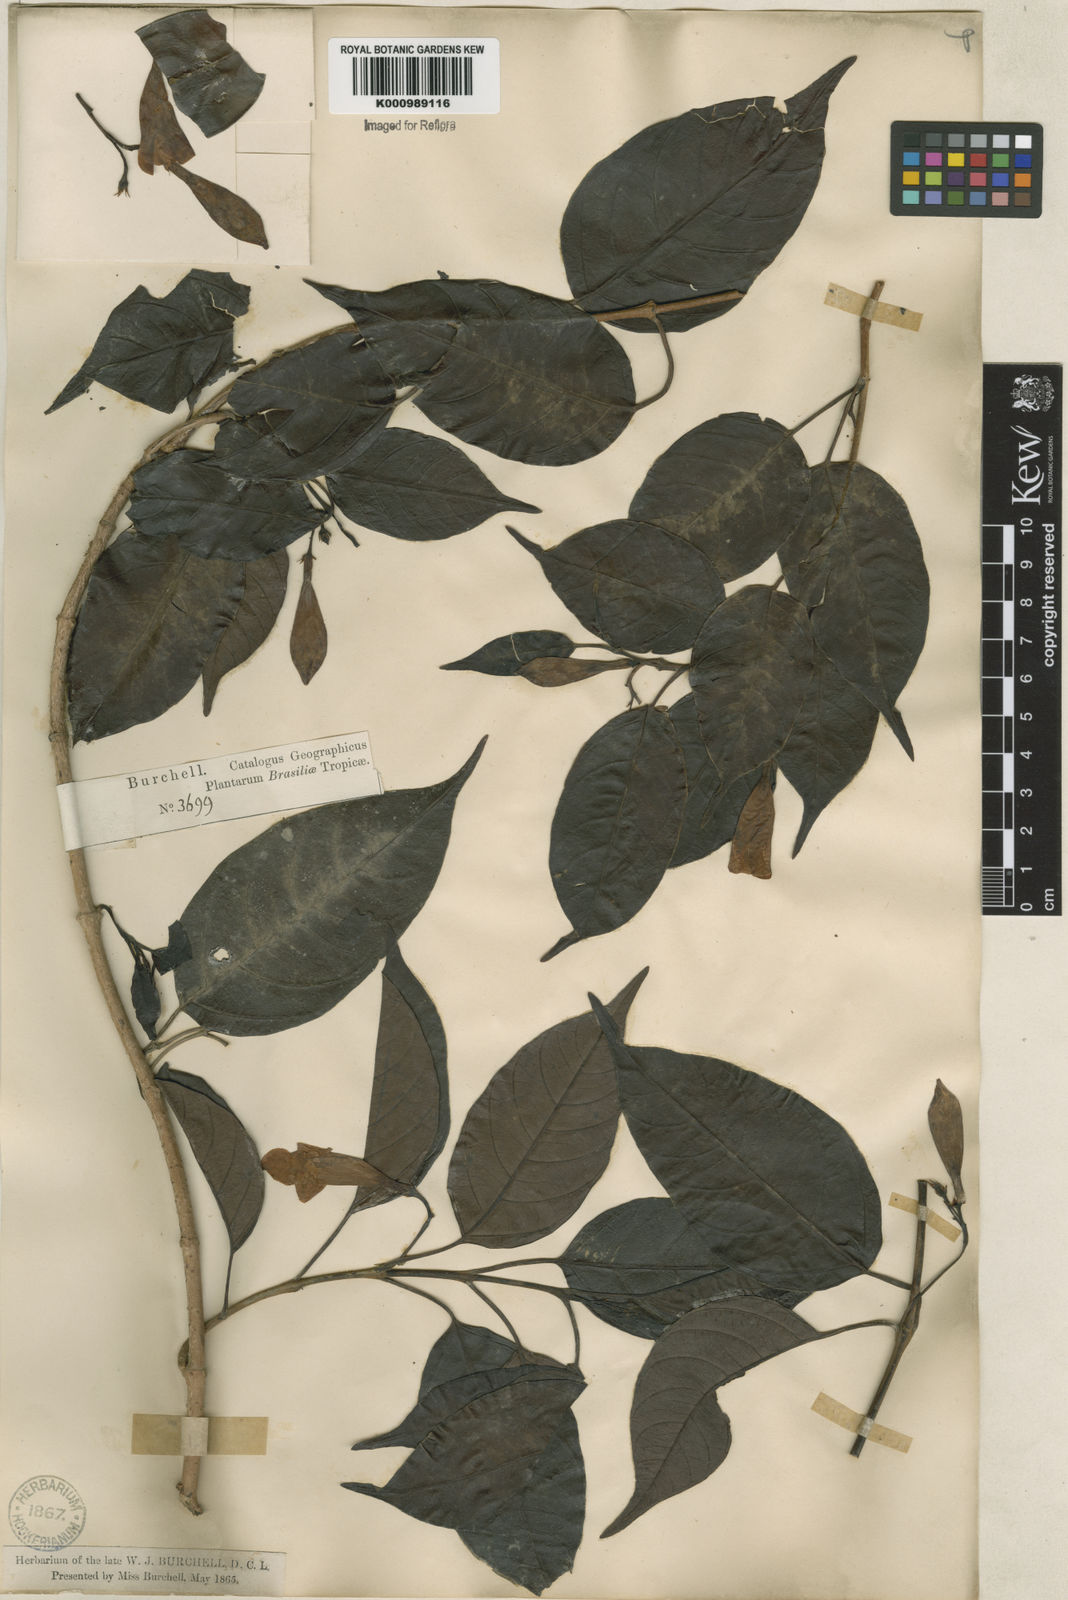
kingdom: Plantae
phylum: Tracheophyta
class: Magnoliopsida
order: Gentianales
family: Apocynaceae
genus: Mandevilla
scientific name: Mandevilla urophylla
